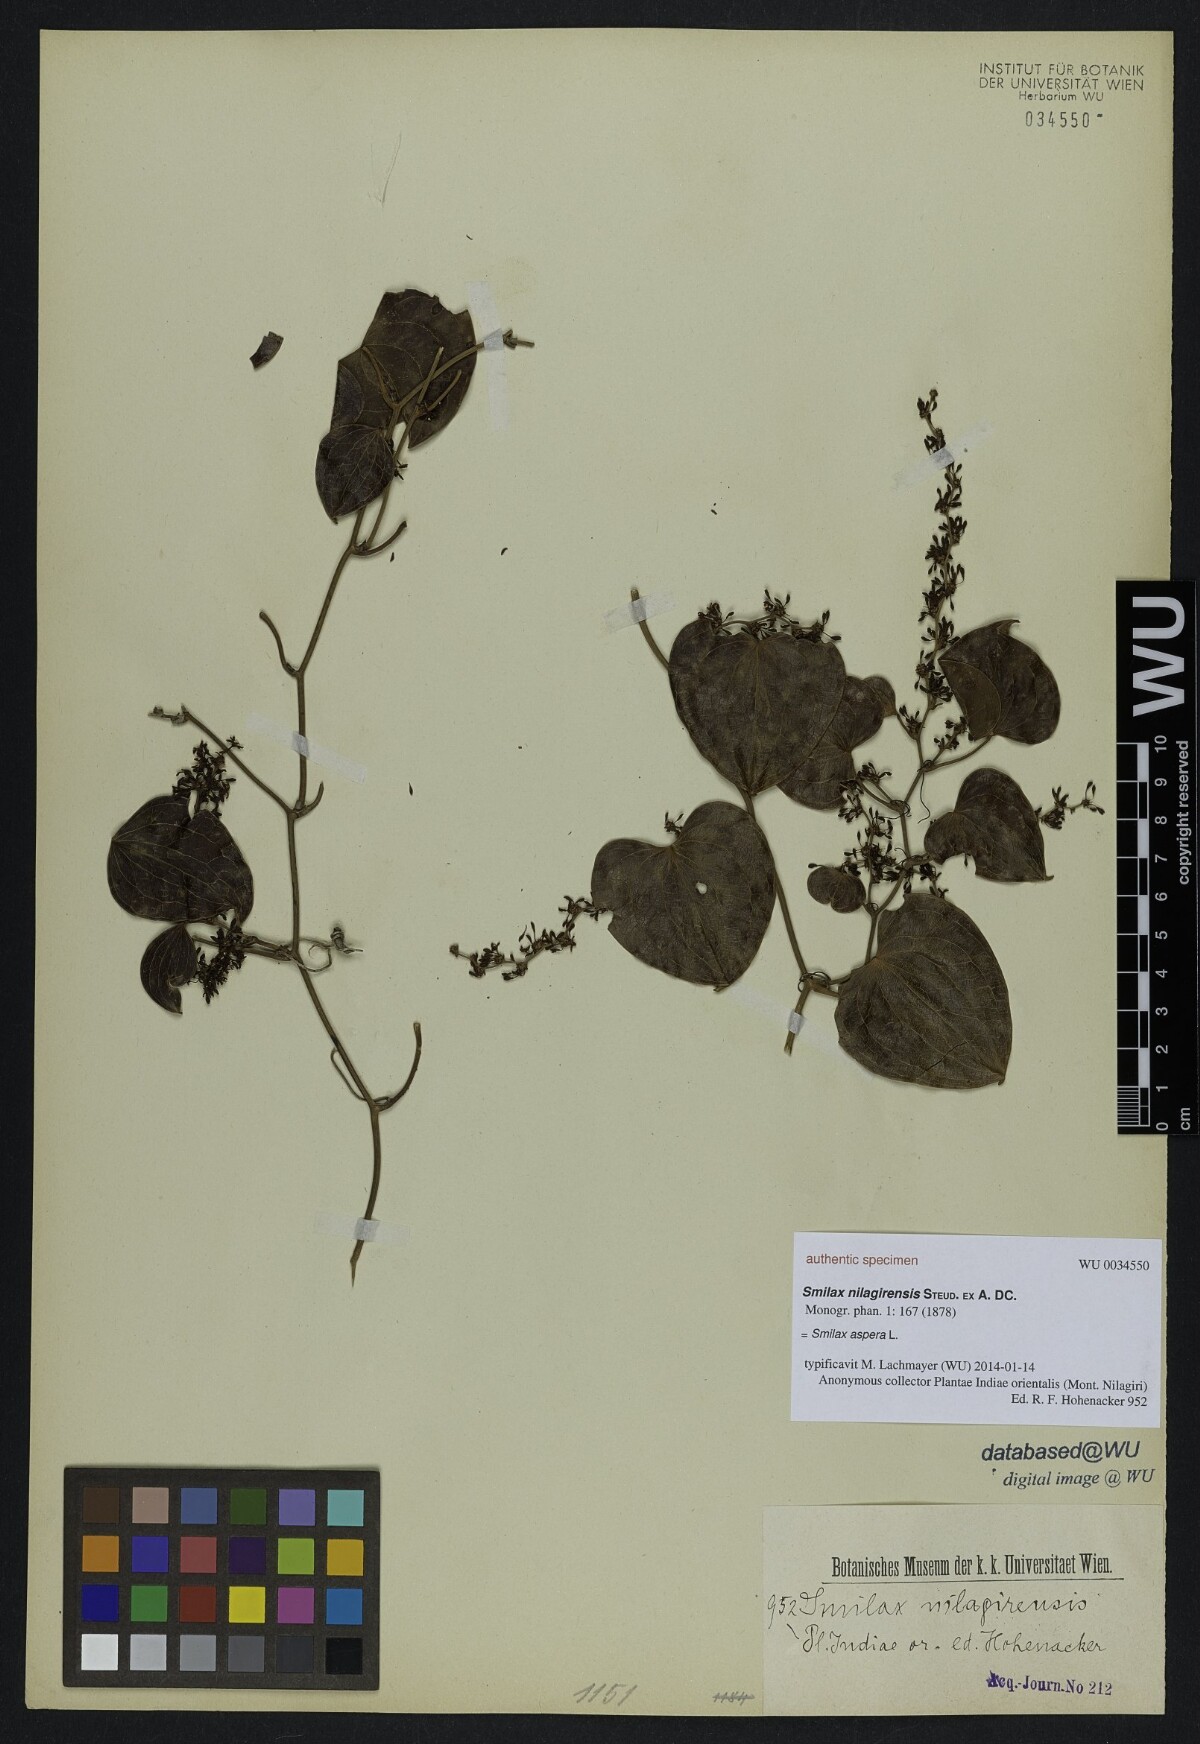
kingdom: Plantae
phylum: Tracheophyta
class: Liliopsida
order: Liliales
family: Smilacaceae
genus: Smilax
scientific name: Smilax aspera
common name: Common smilax
